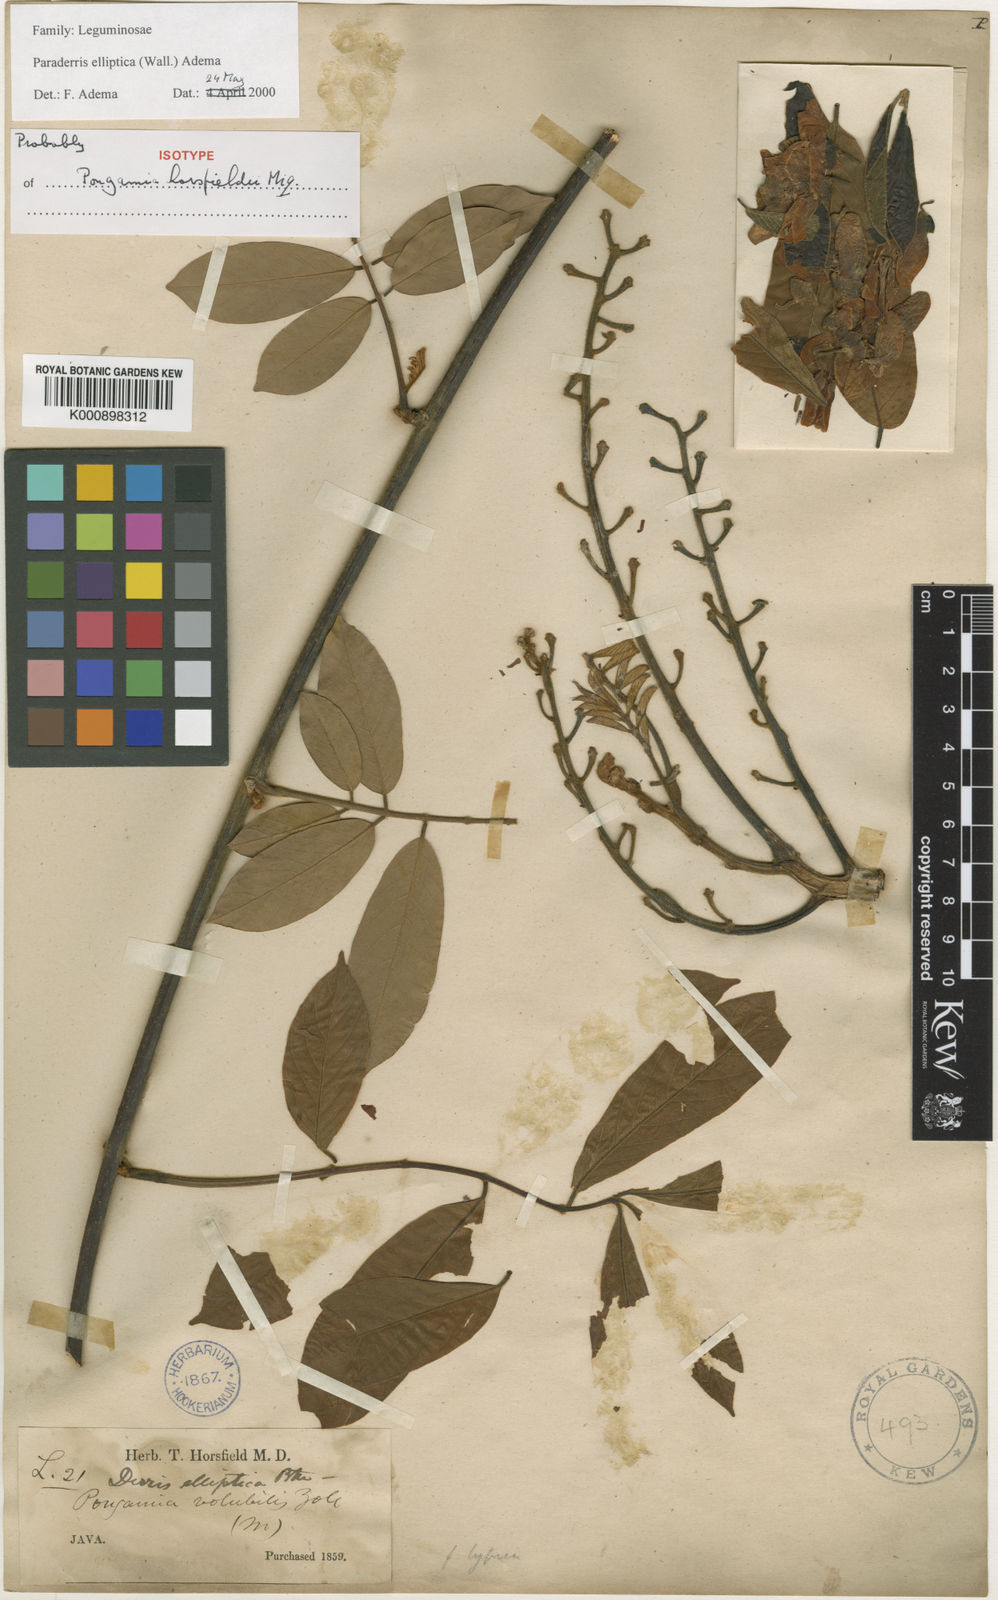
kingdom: Plantae
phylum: Tracheophyta
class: Magnoliopsida
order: Fabales
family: Fabaceae
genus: Derris
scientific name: Derris elliptica
